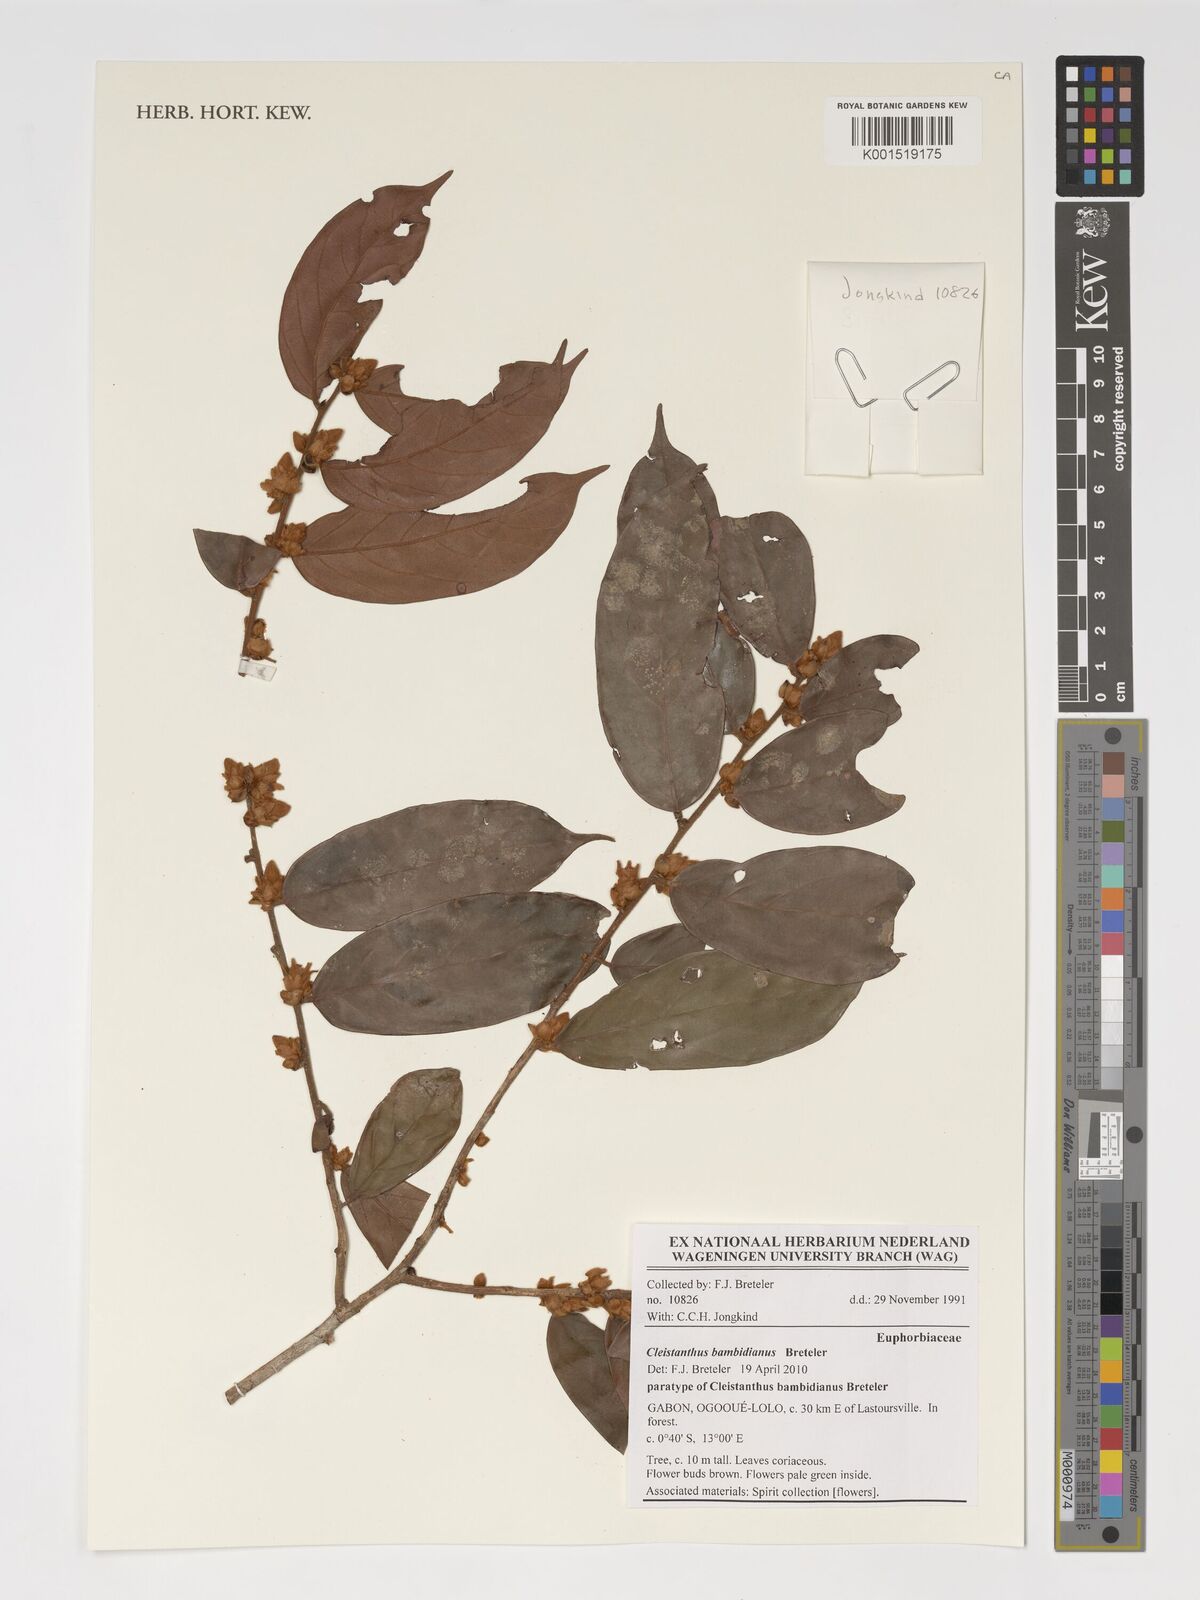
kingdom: Plantae
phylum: Tracheophyta
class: Magnoliopsida
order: Malpighiales
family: Phyllanthaceae
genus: Cleistanthus
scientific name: Cleistanthus bambidianus
